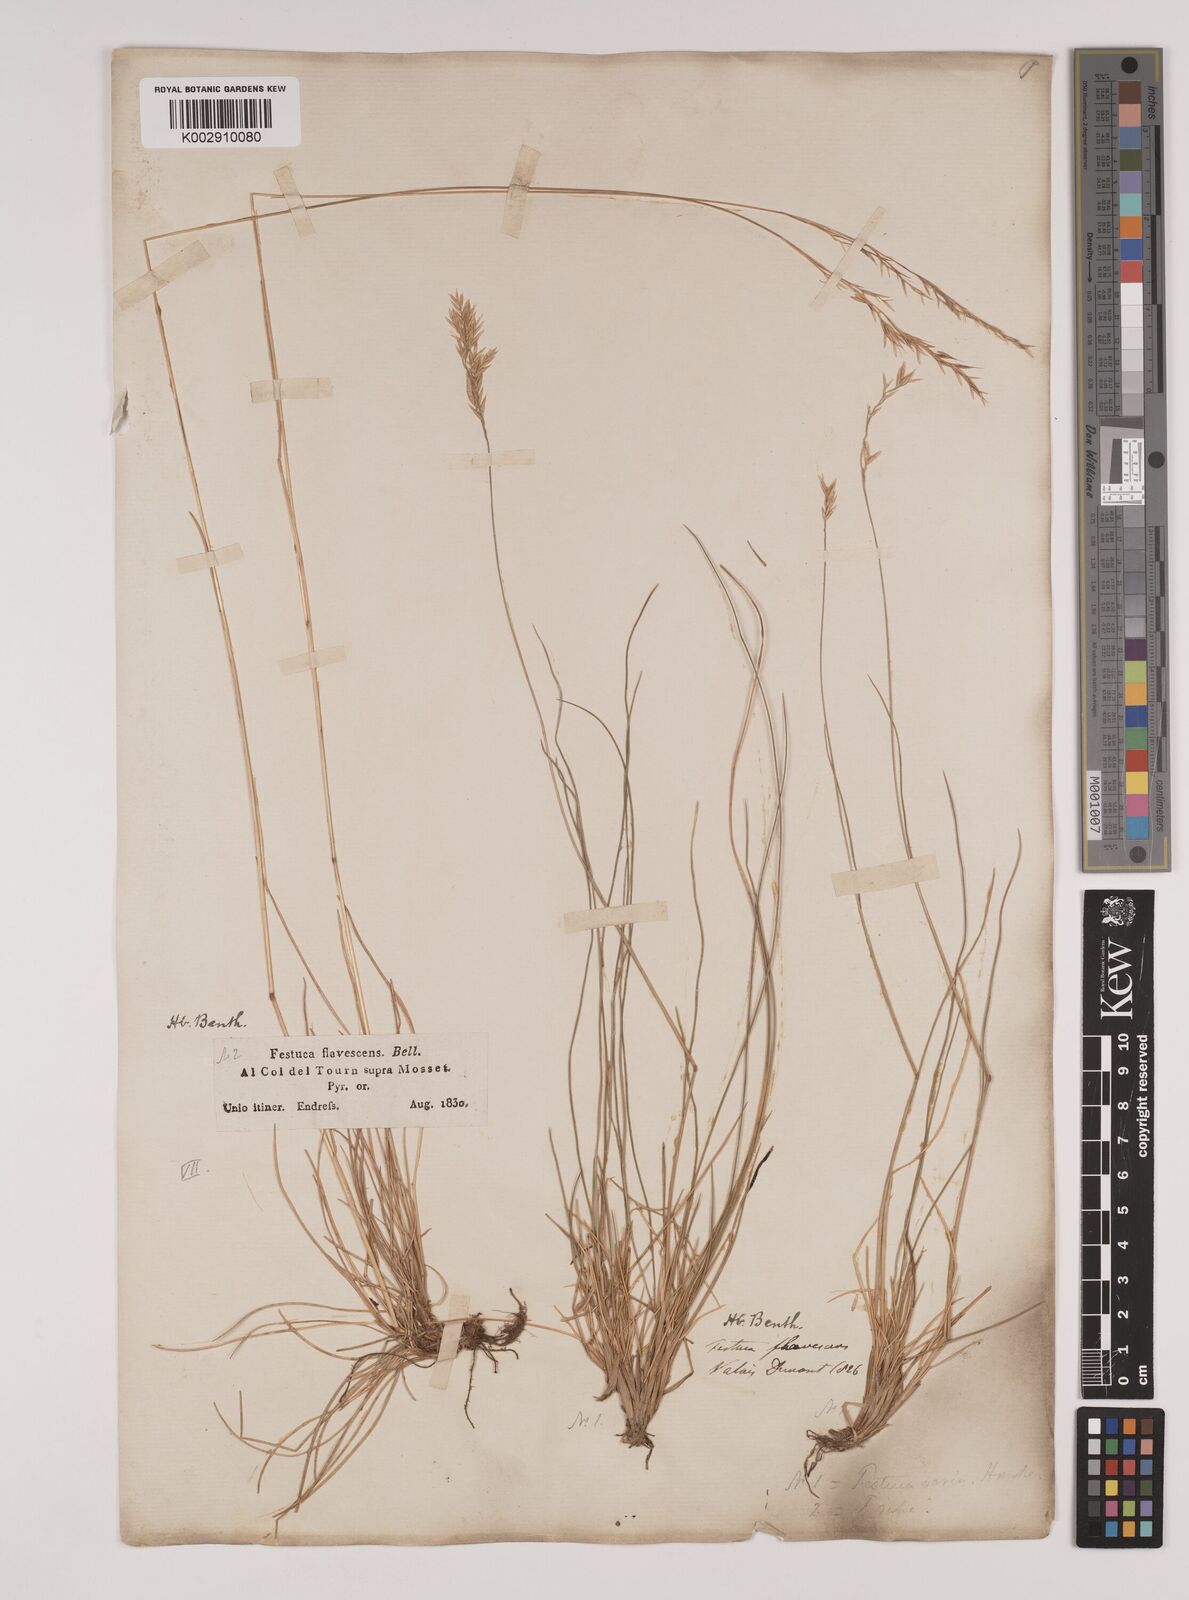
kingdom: Plantae
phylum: Tracheophyta
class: Liliopsida
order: Poales
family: Poaceae
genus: Festuca
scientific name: Festuca flavescens
